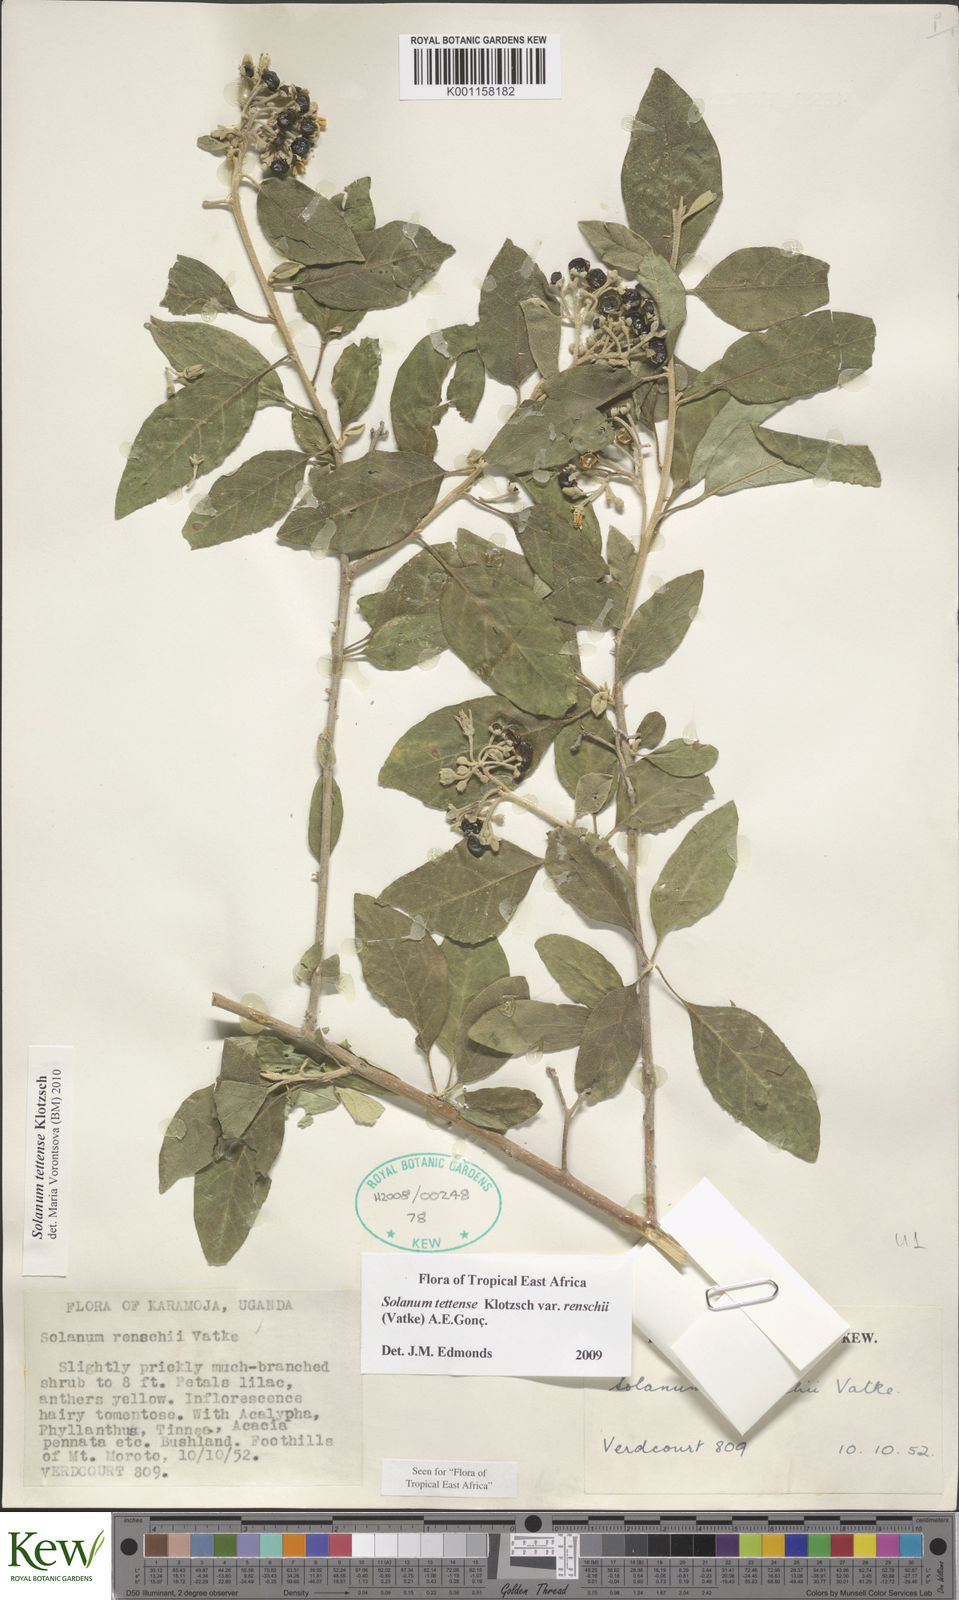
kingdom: Plantae
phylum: Tracheophyta
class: Magnoliopsida
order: Solanales
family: Solanaceae
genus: Solanum
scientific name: Solanum tettense
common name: Mozambique bitter apple
